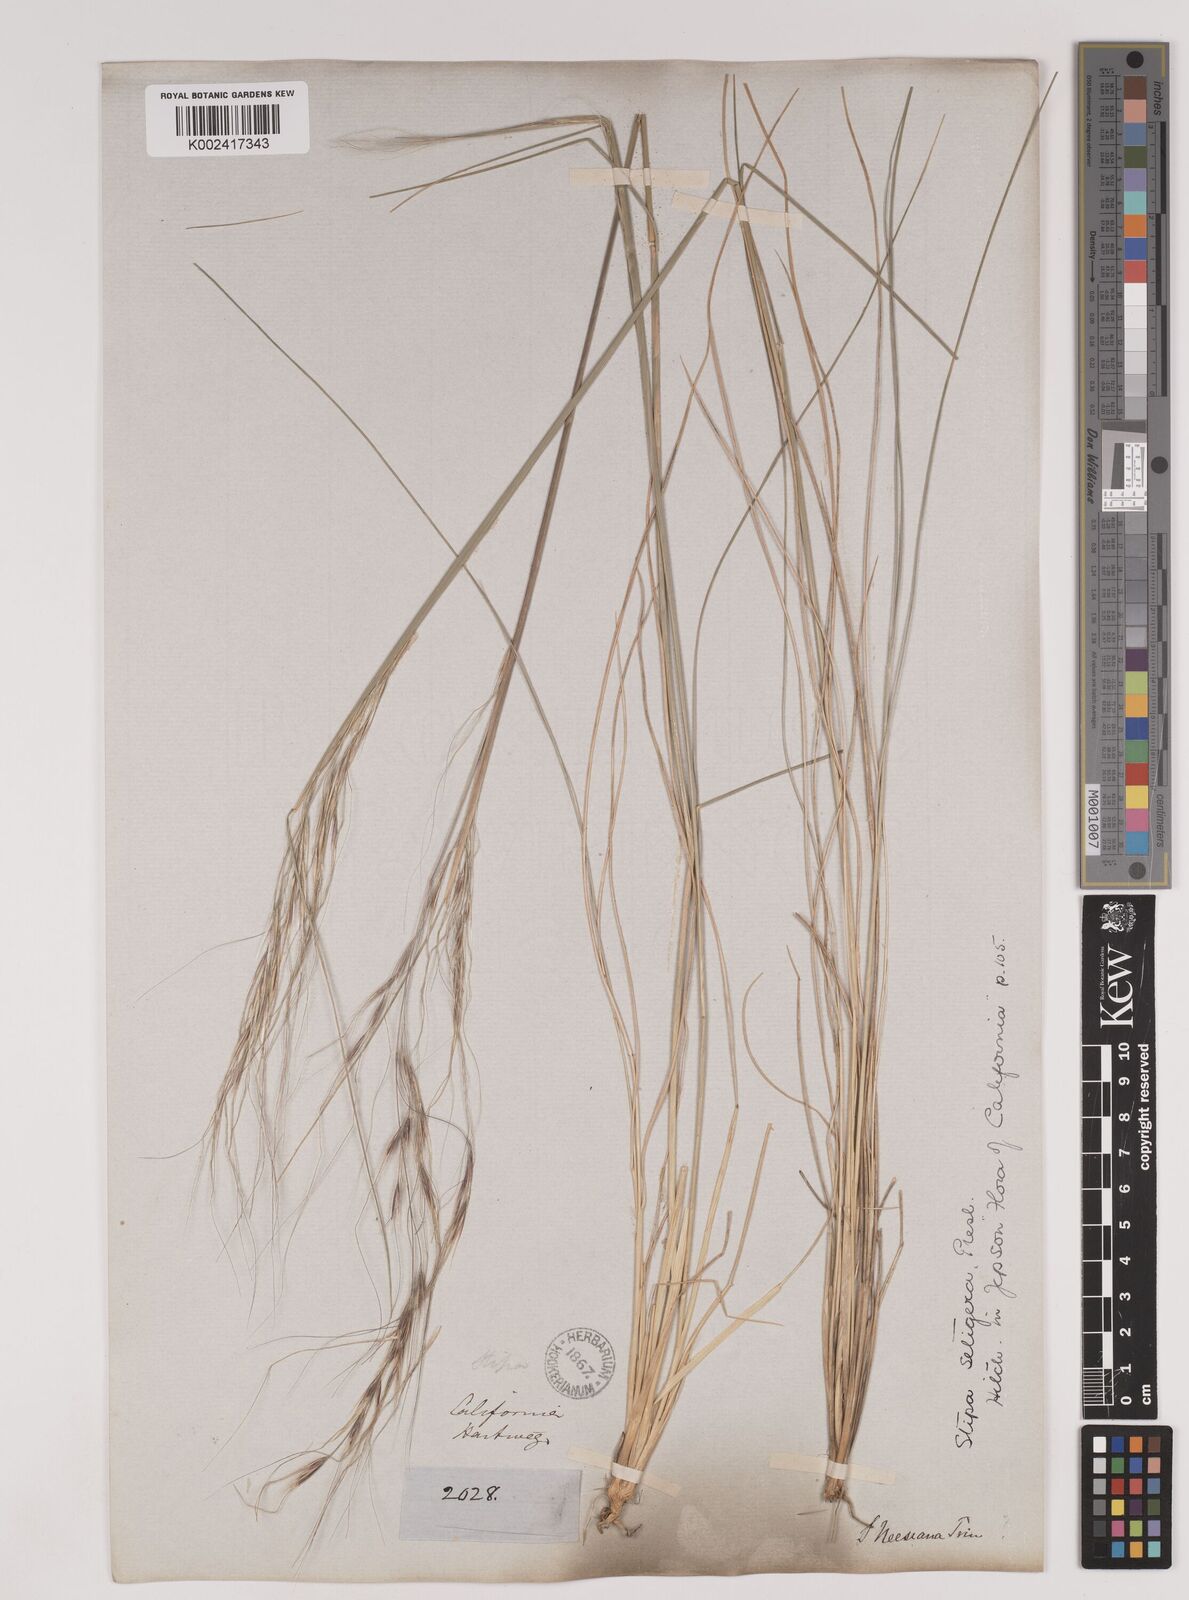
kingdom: Plantae
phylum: Tracheophyta
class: Liliopsida
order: Poales
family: Poaceae
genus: Nassella
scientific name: Nassella pulchra
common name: Purple needlegrass
